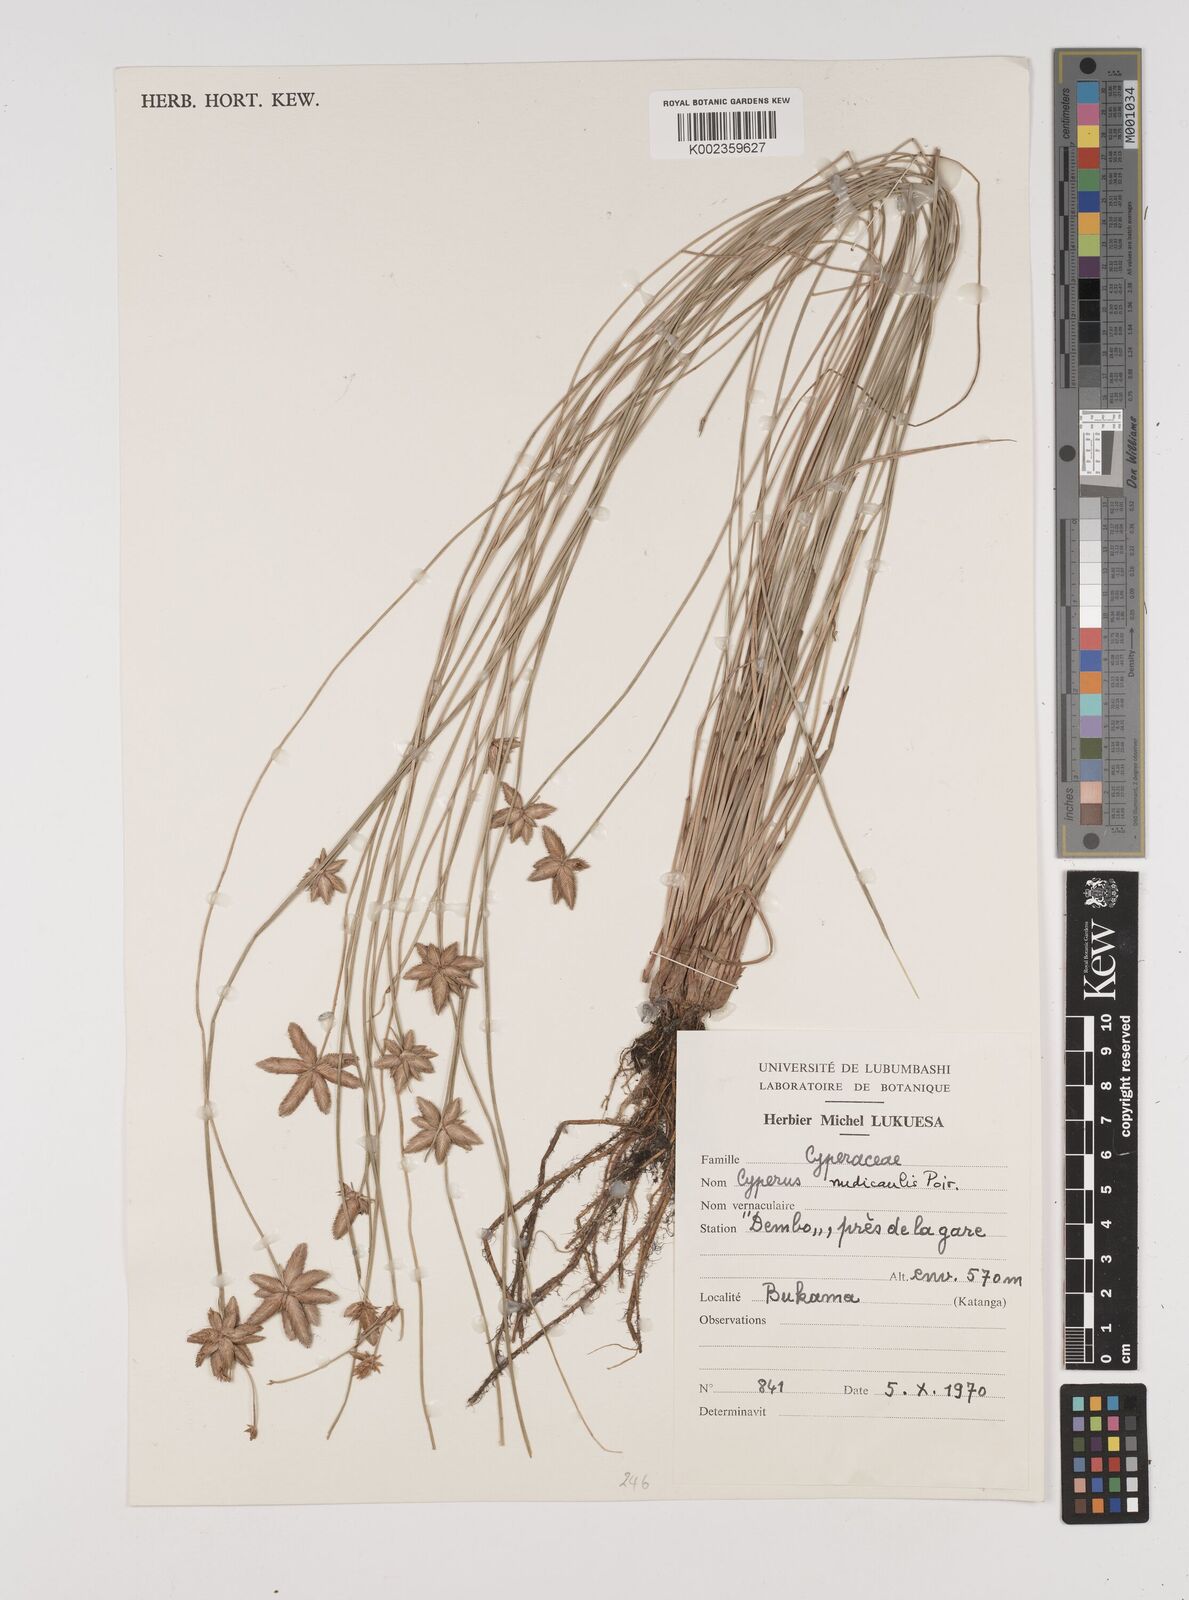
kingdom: Plantae
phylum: Tracheophyta
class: Liliopsida
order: Poales
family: Cyperaceae
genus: Cyperus
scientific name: Cyperus pectinatus
